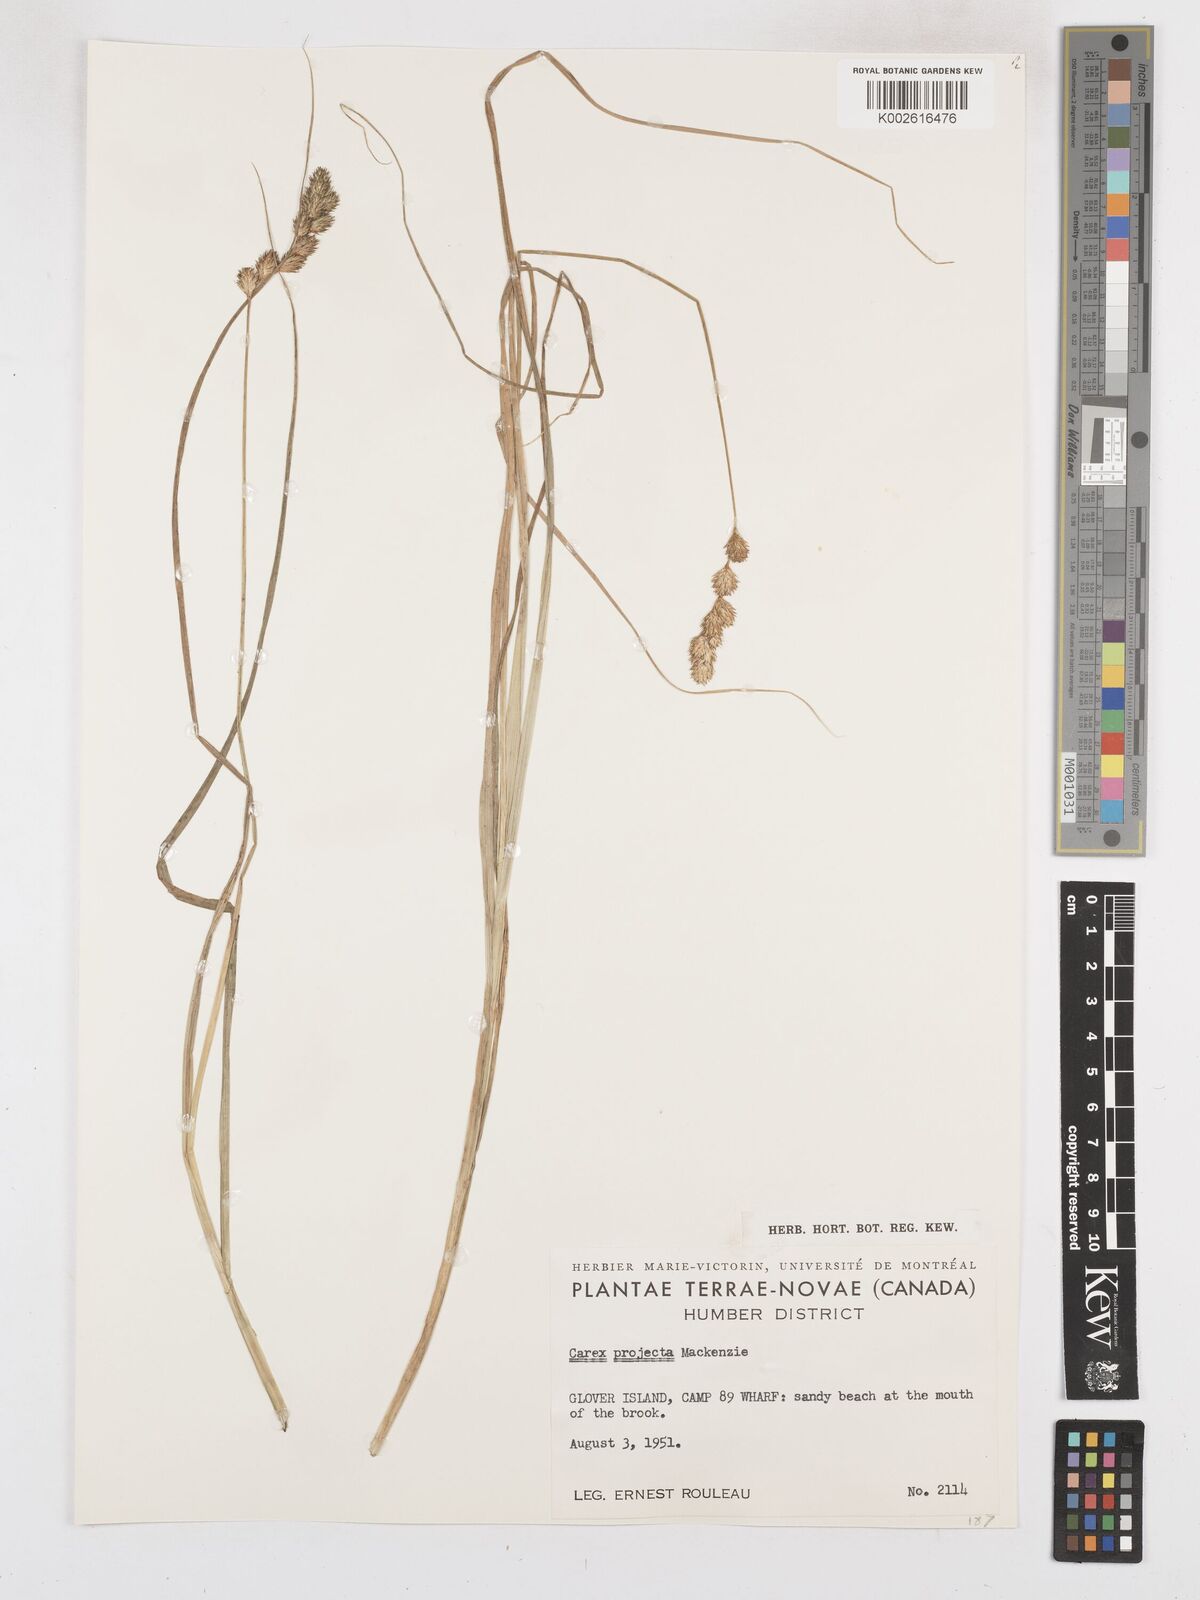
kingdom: Plantae
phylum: Tracheophyta
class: Liliopsida
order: Poales
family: Cyperaceae
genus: Carex
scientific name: Carex projecta
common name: Loose-headed oval sedge
